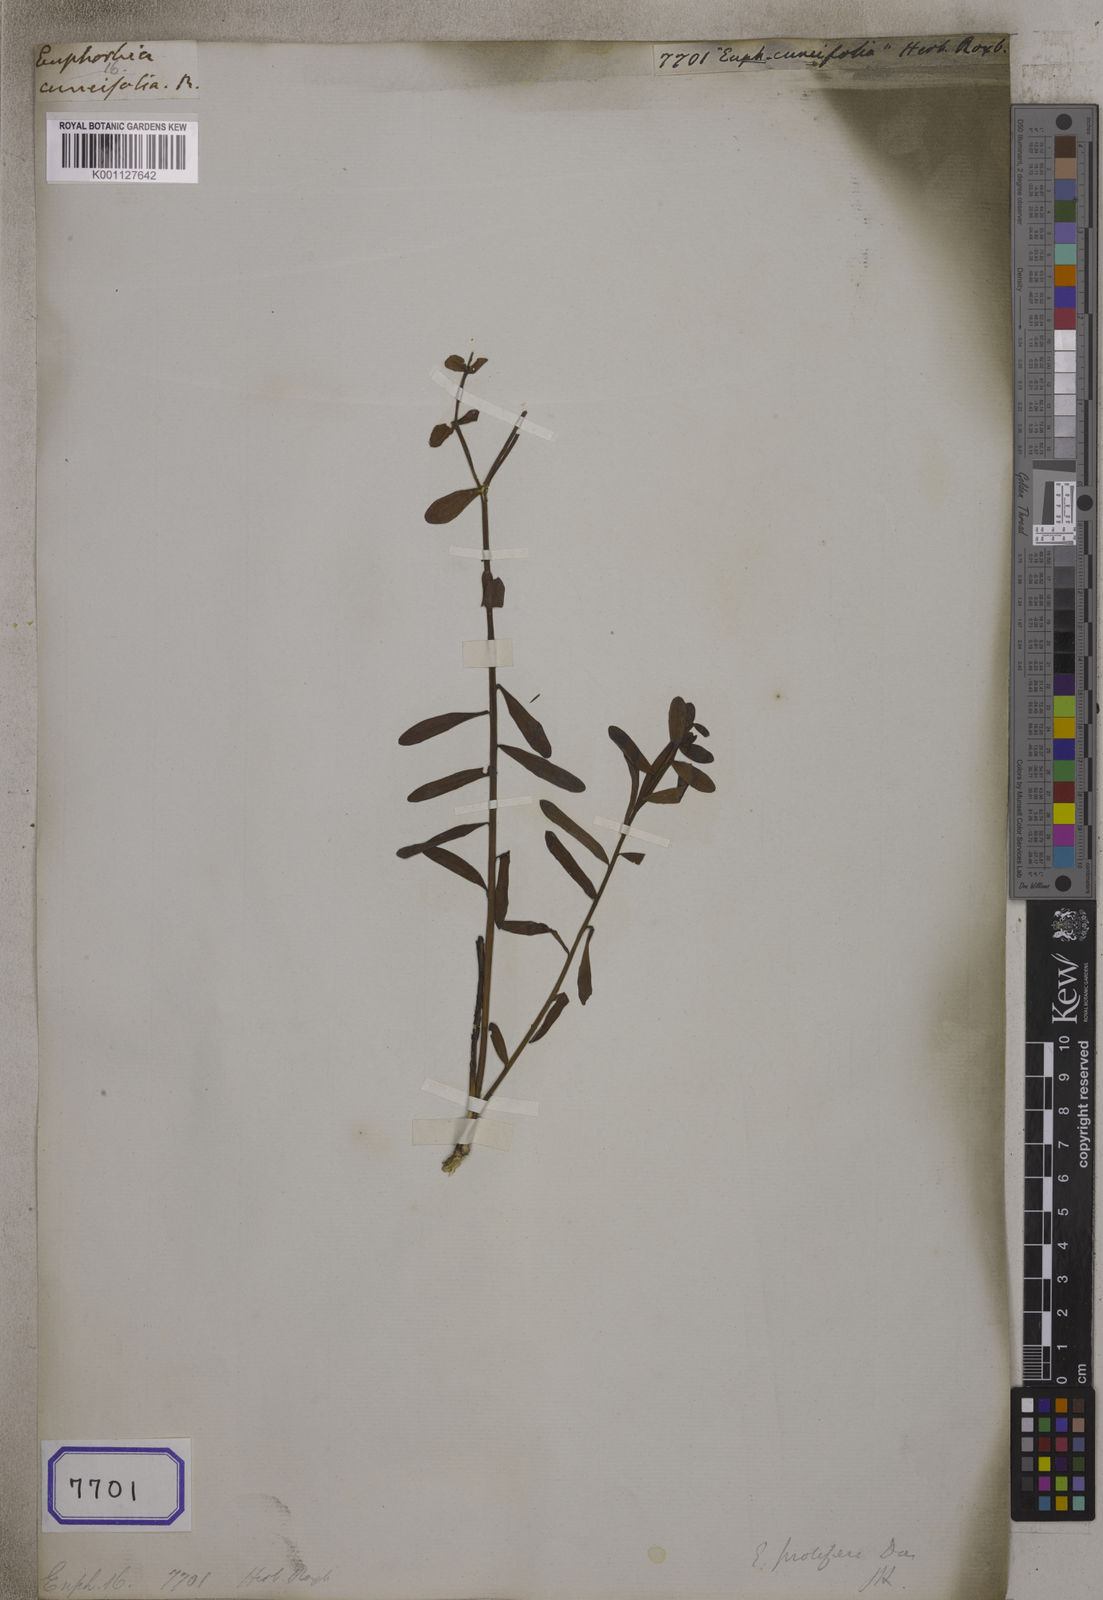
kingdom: Plantae
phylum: Tracheophyta
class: Magnoliopsida
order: Malpighiales
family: Euphorbiaceae
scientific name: Euphorbiaceae
